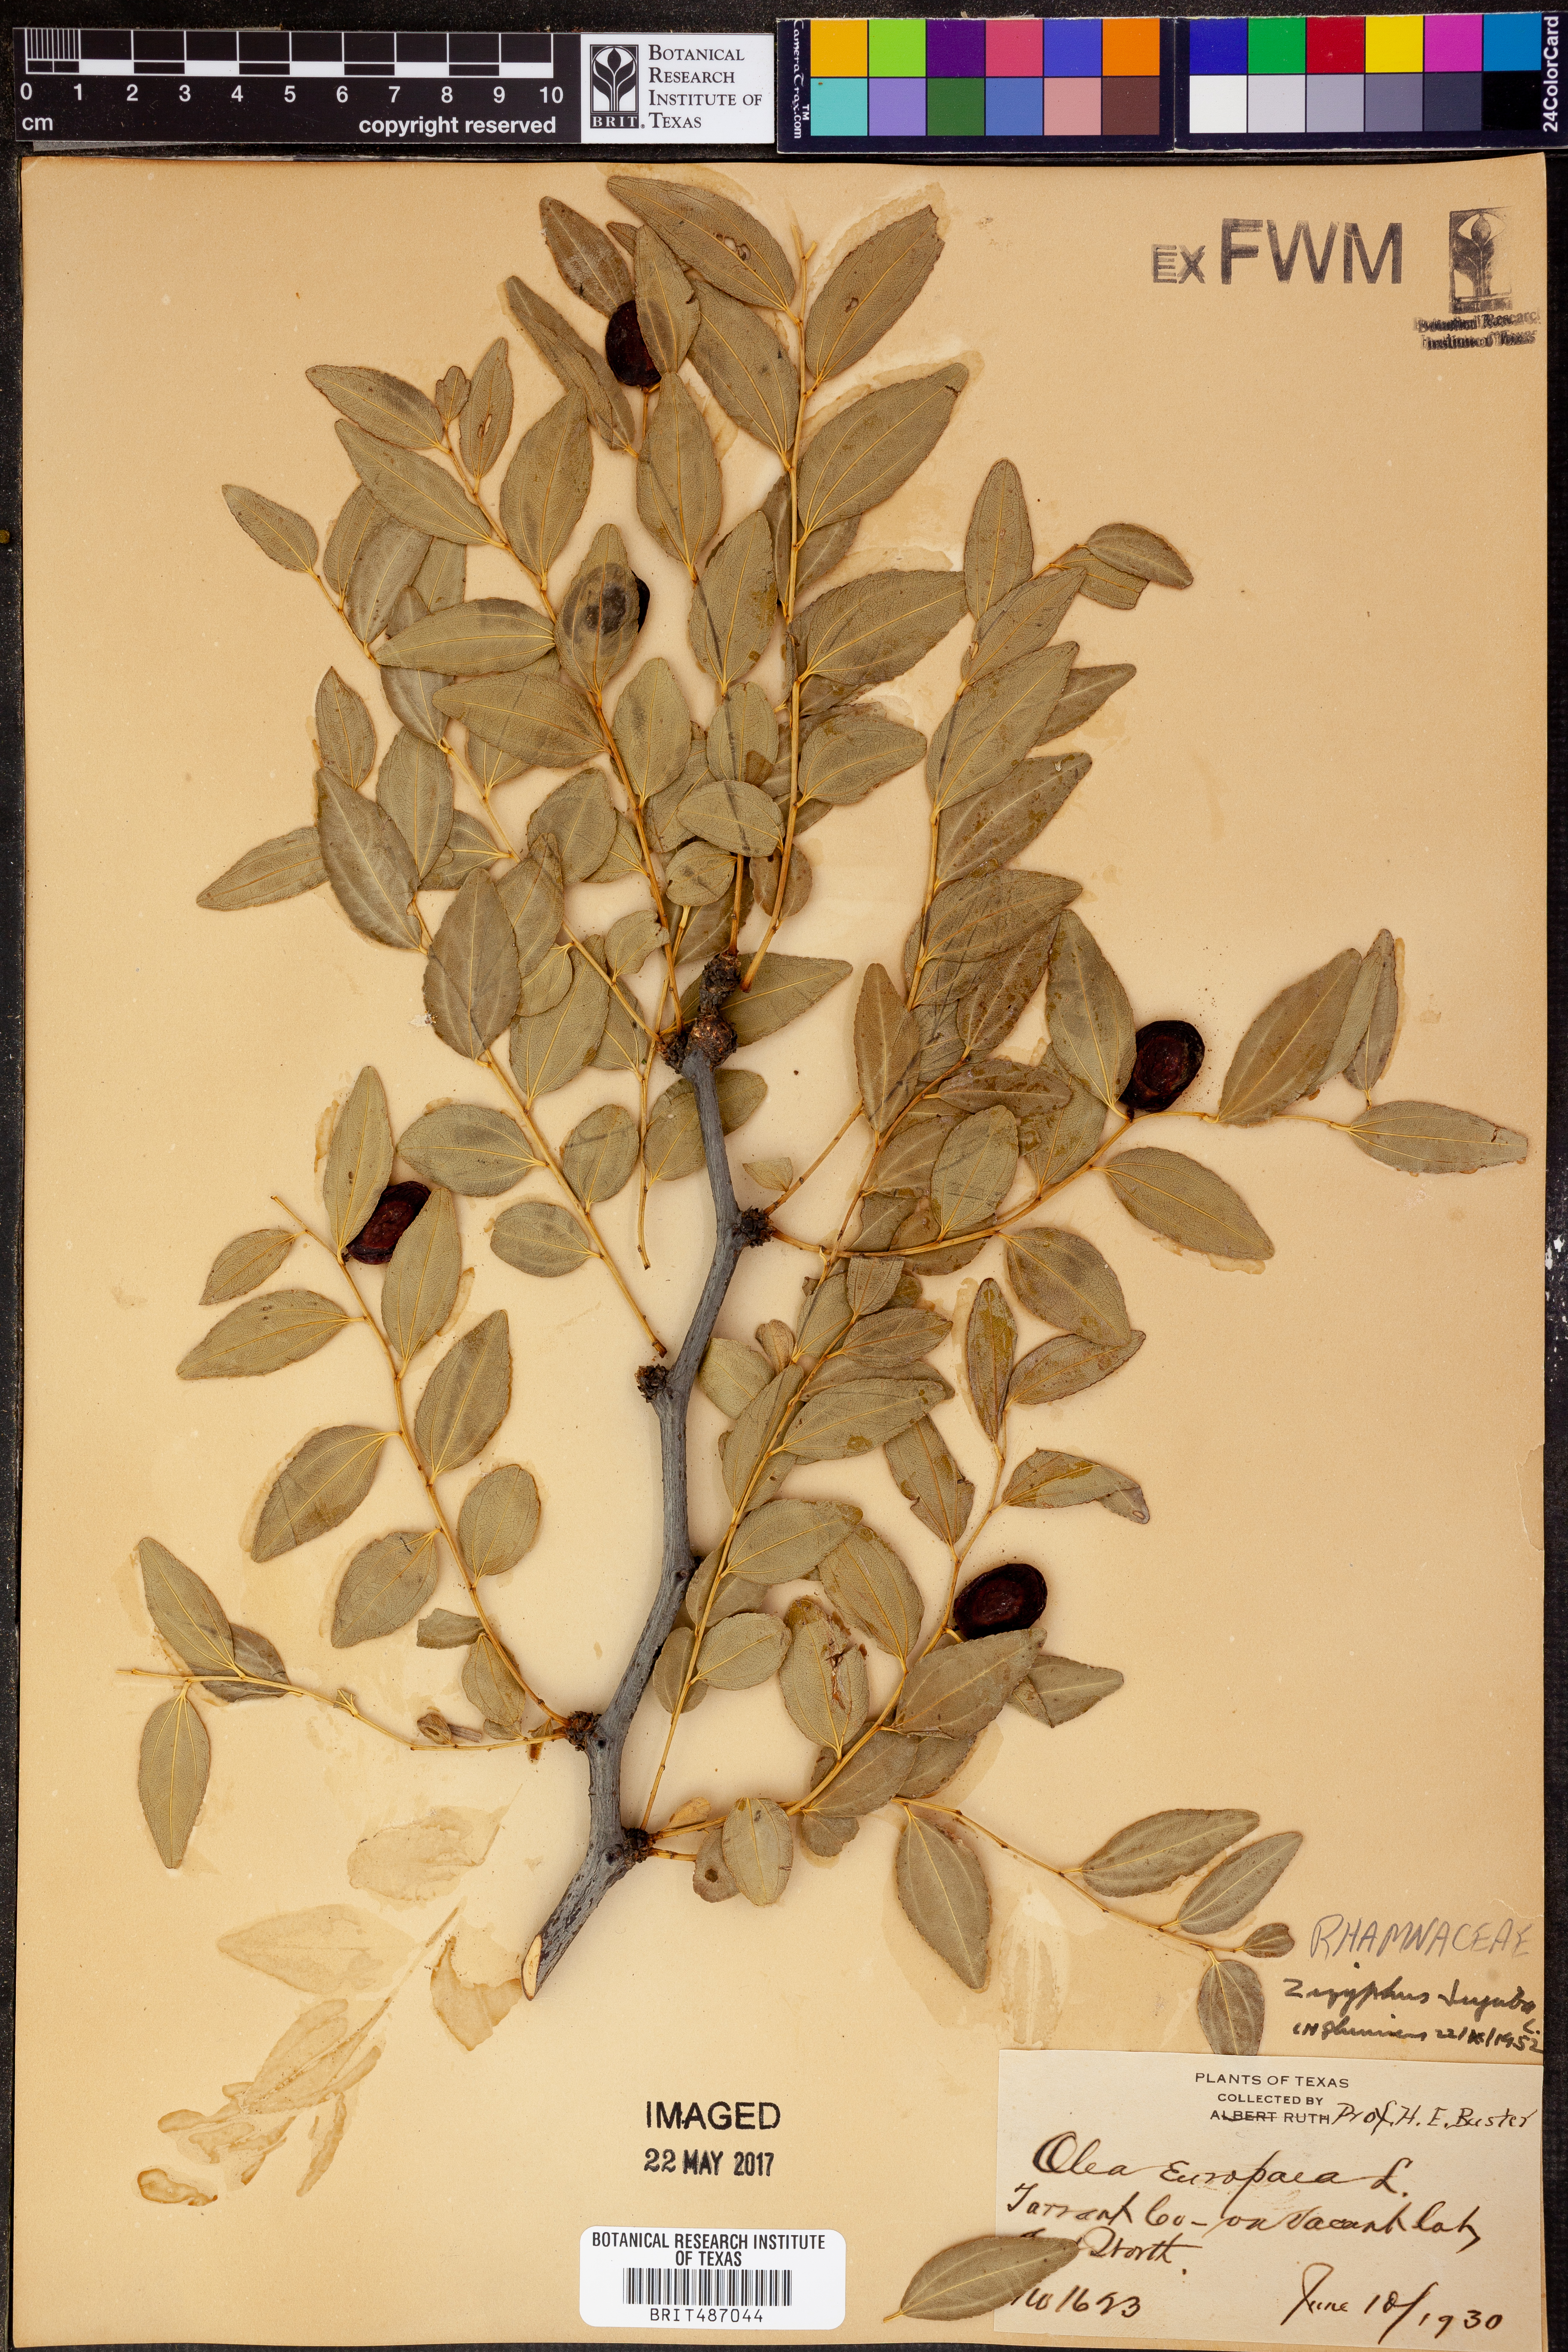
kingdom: Plantae
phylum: Tracheophyta
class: Magnoliopsida
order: Rosales
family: Rhamnaceae
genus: Ziziphus
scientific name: Ziziphus jujuba
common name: Jujube red date
